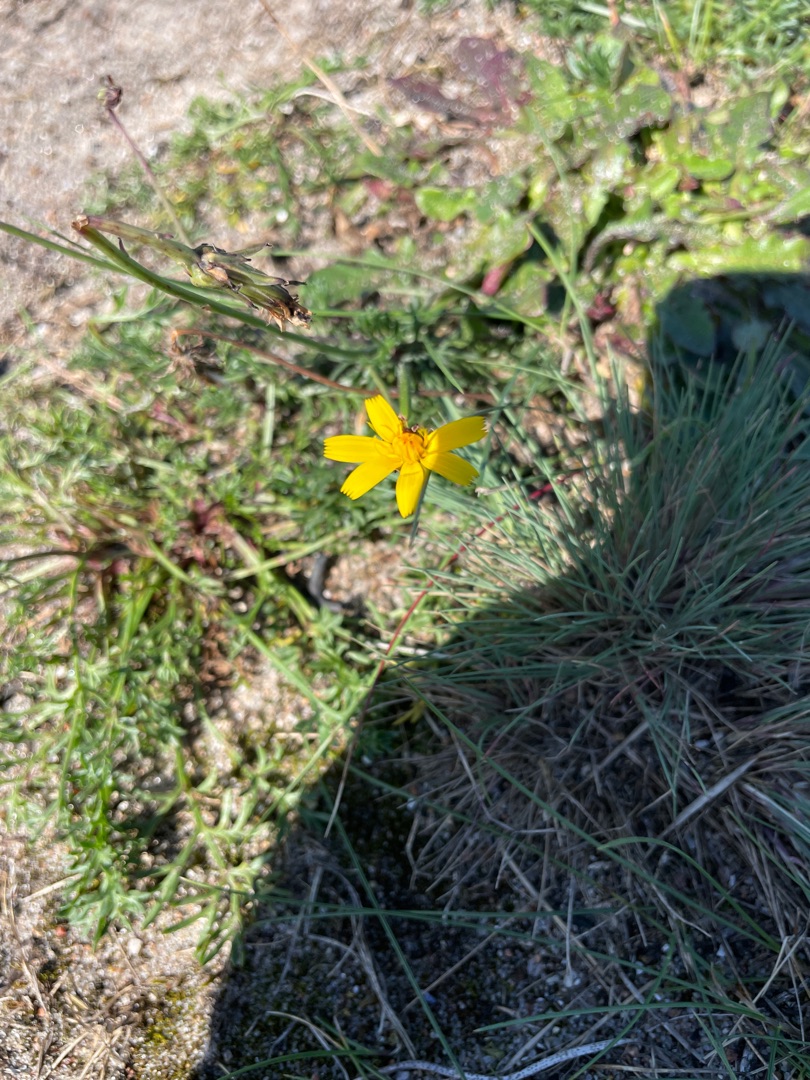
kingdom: Plantae
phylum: Tracheophyta
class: Liliopsida
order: Poales
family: Poaceae
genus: Corynephorus
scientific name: Corynephorus canescens
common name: Sandskæg
